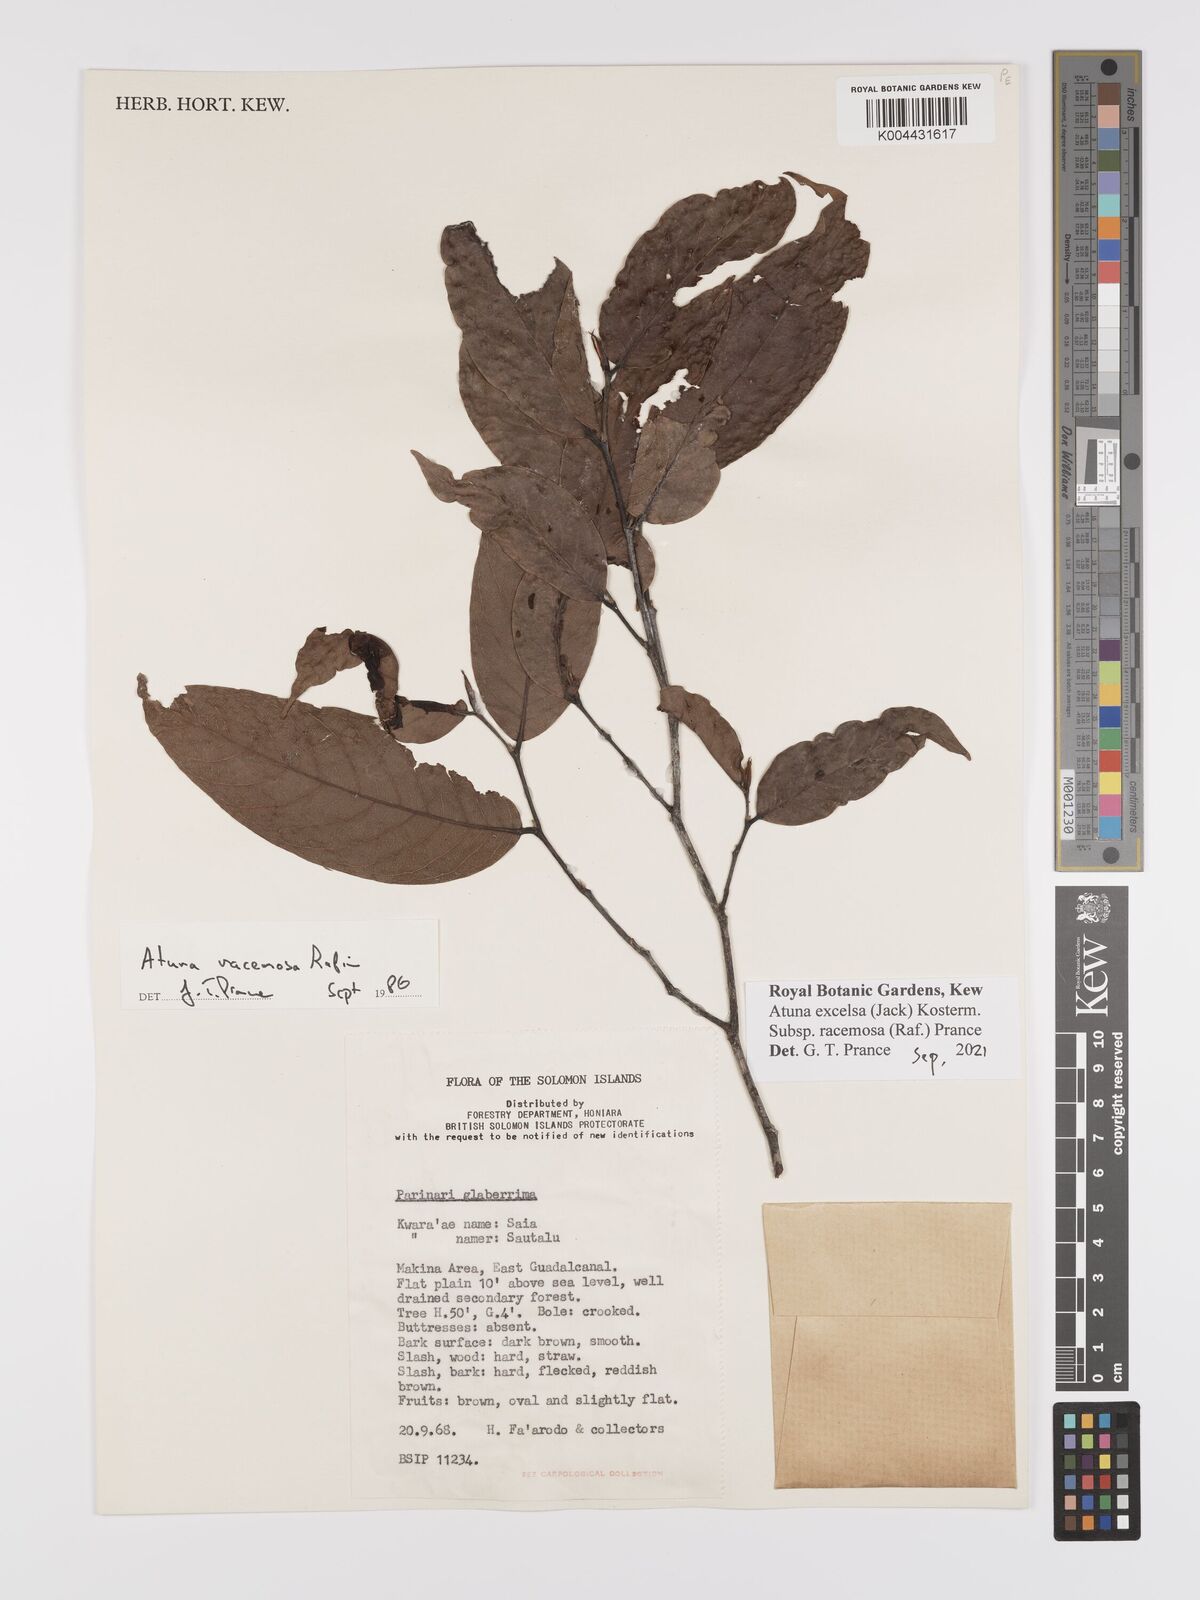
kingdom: Plantae
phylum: Tracheophyta
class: Magnoliopsida
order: Malpighiales
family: Chrysobalanaceae
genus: Atuna
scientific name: Atuna
